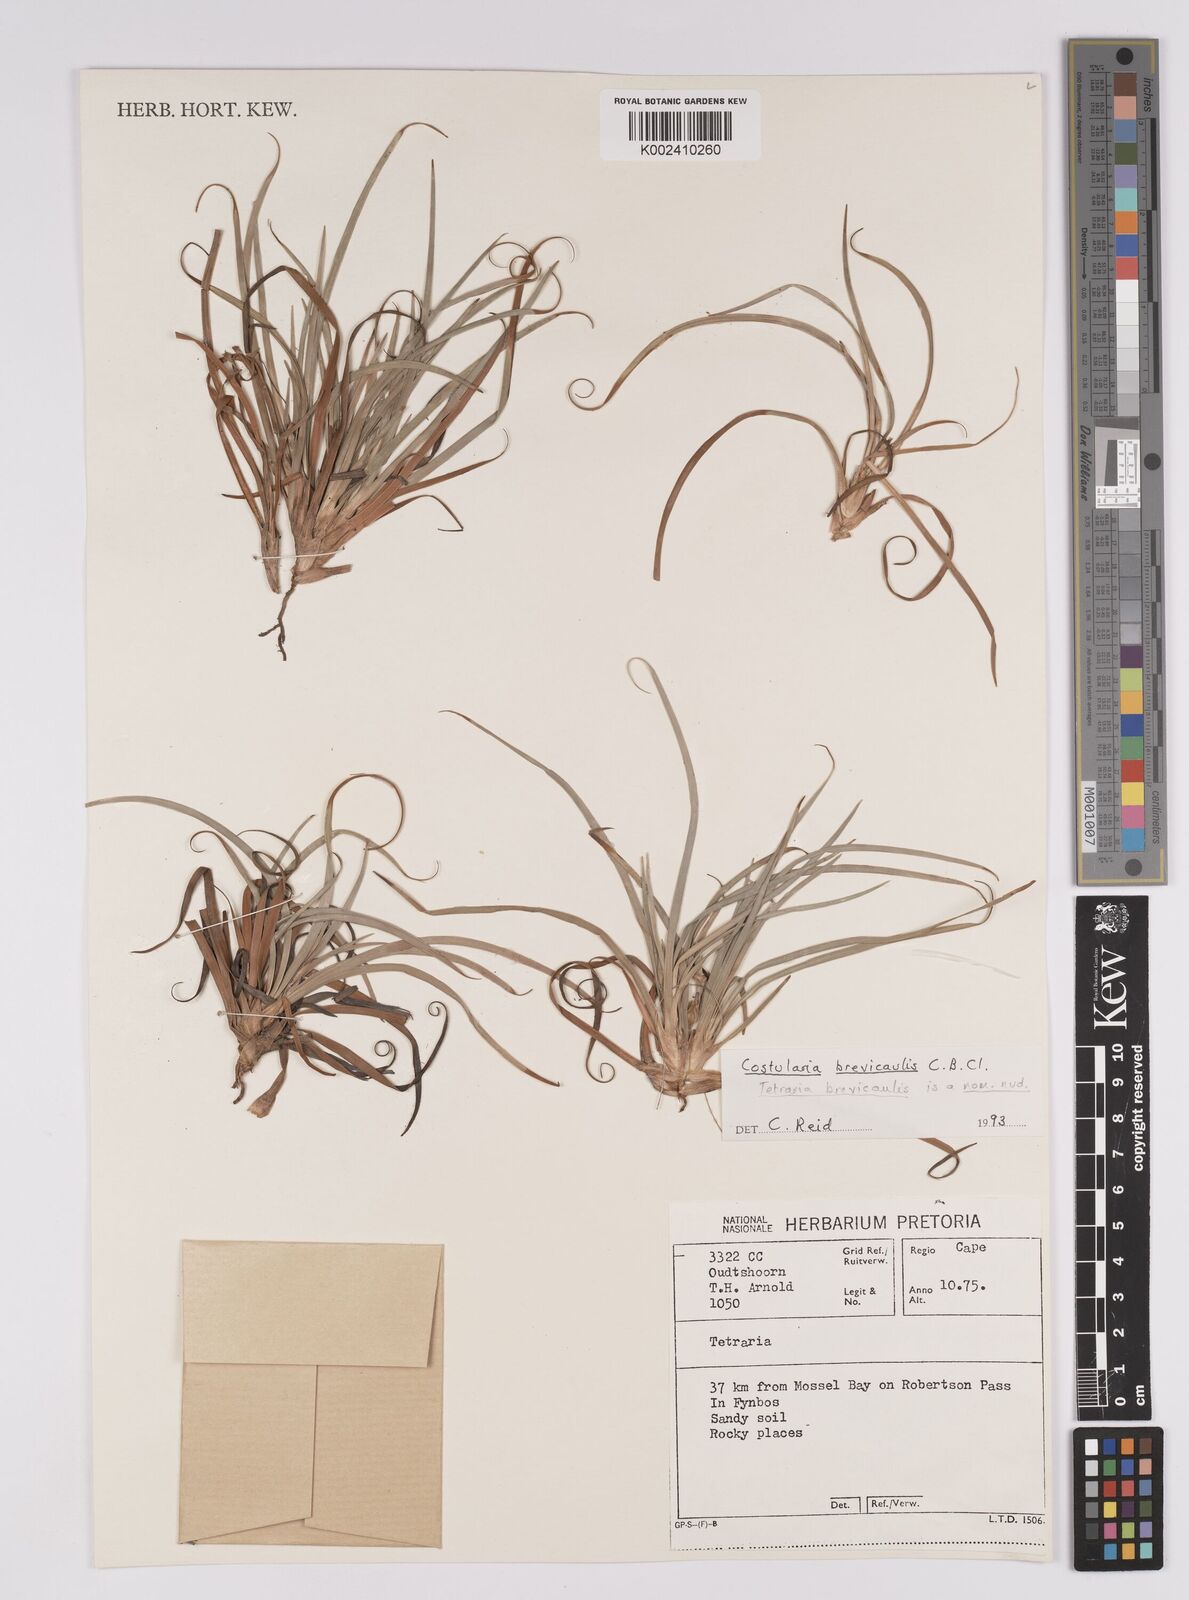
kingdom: Plantae
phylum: Tracheophyta
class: Liliopsida
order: Poales
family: Cyperaceae
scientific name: Cyperaceae
